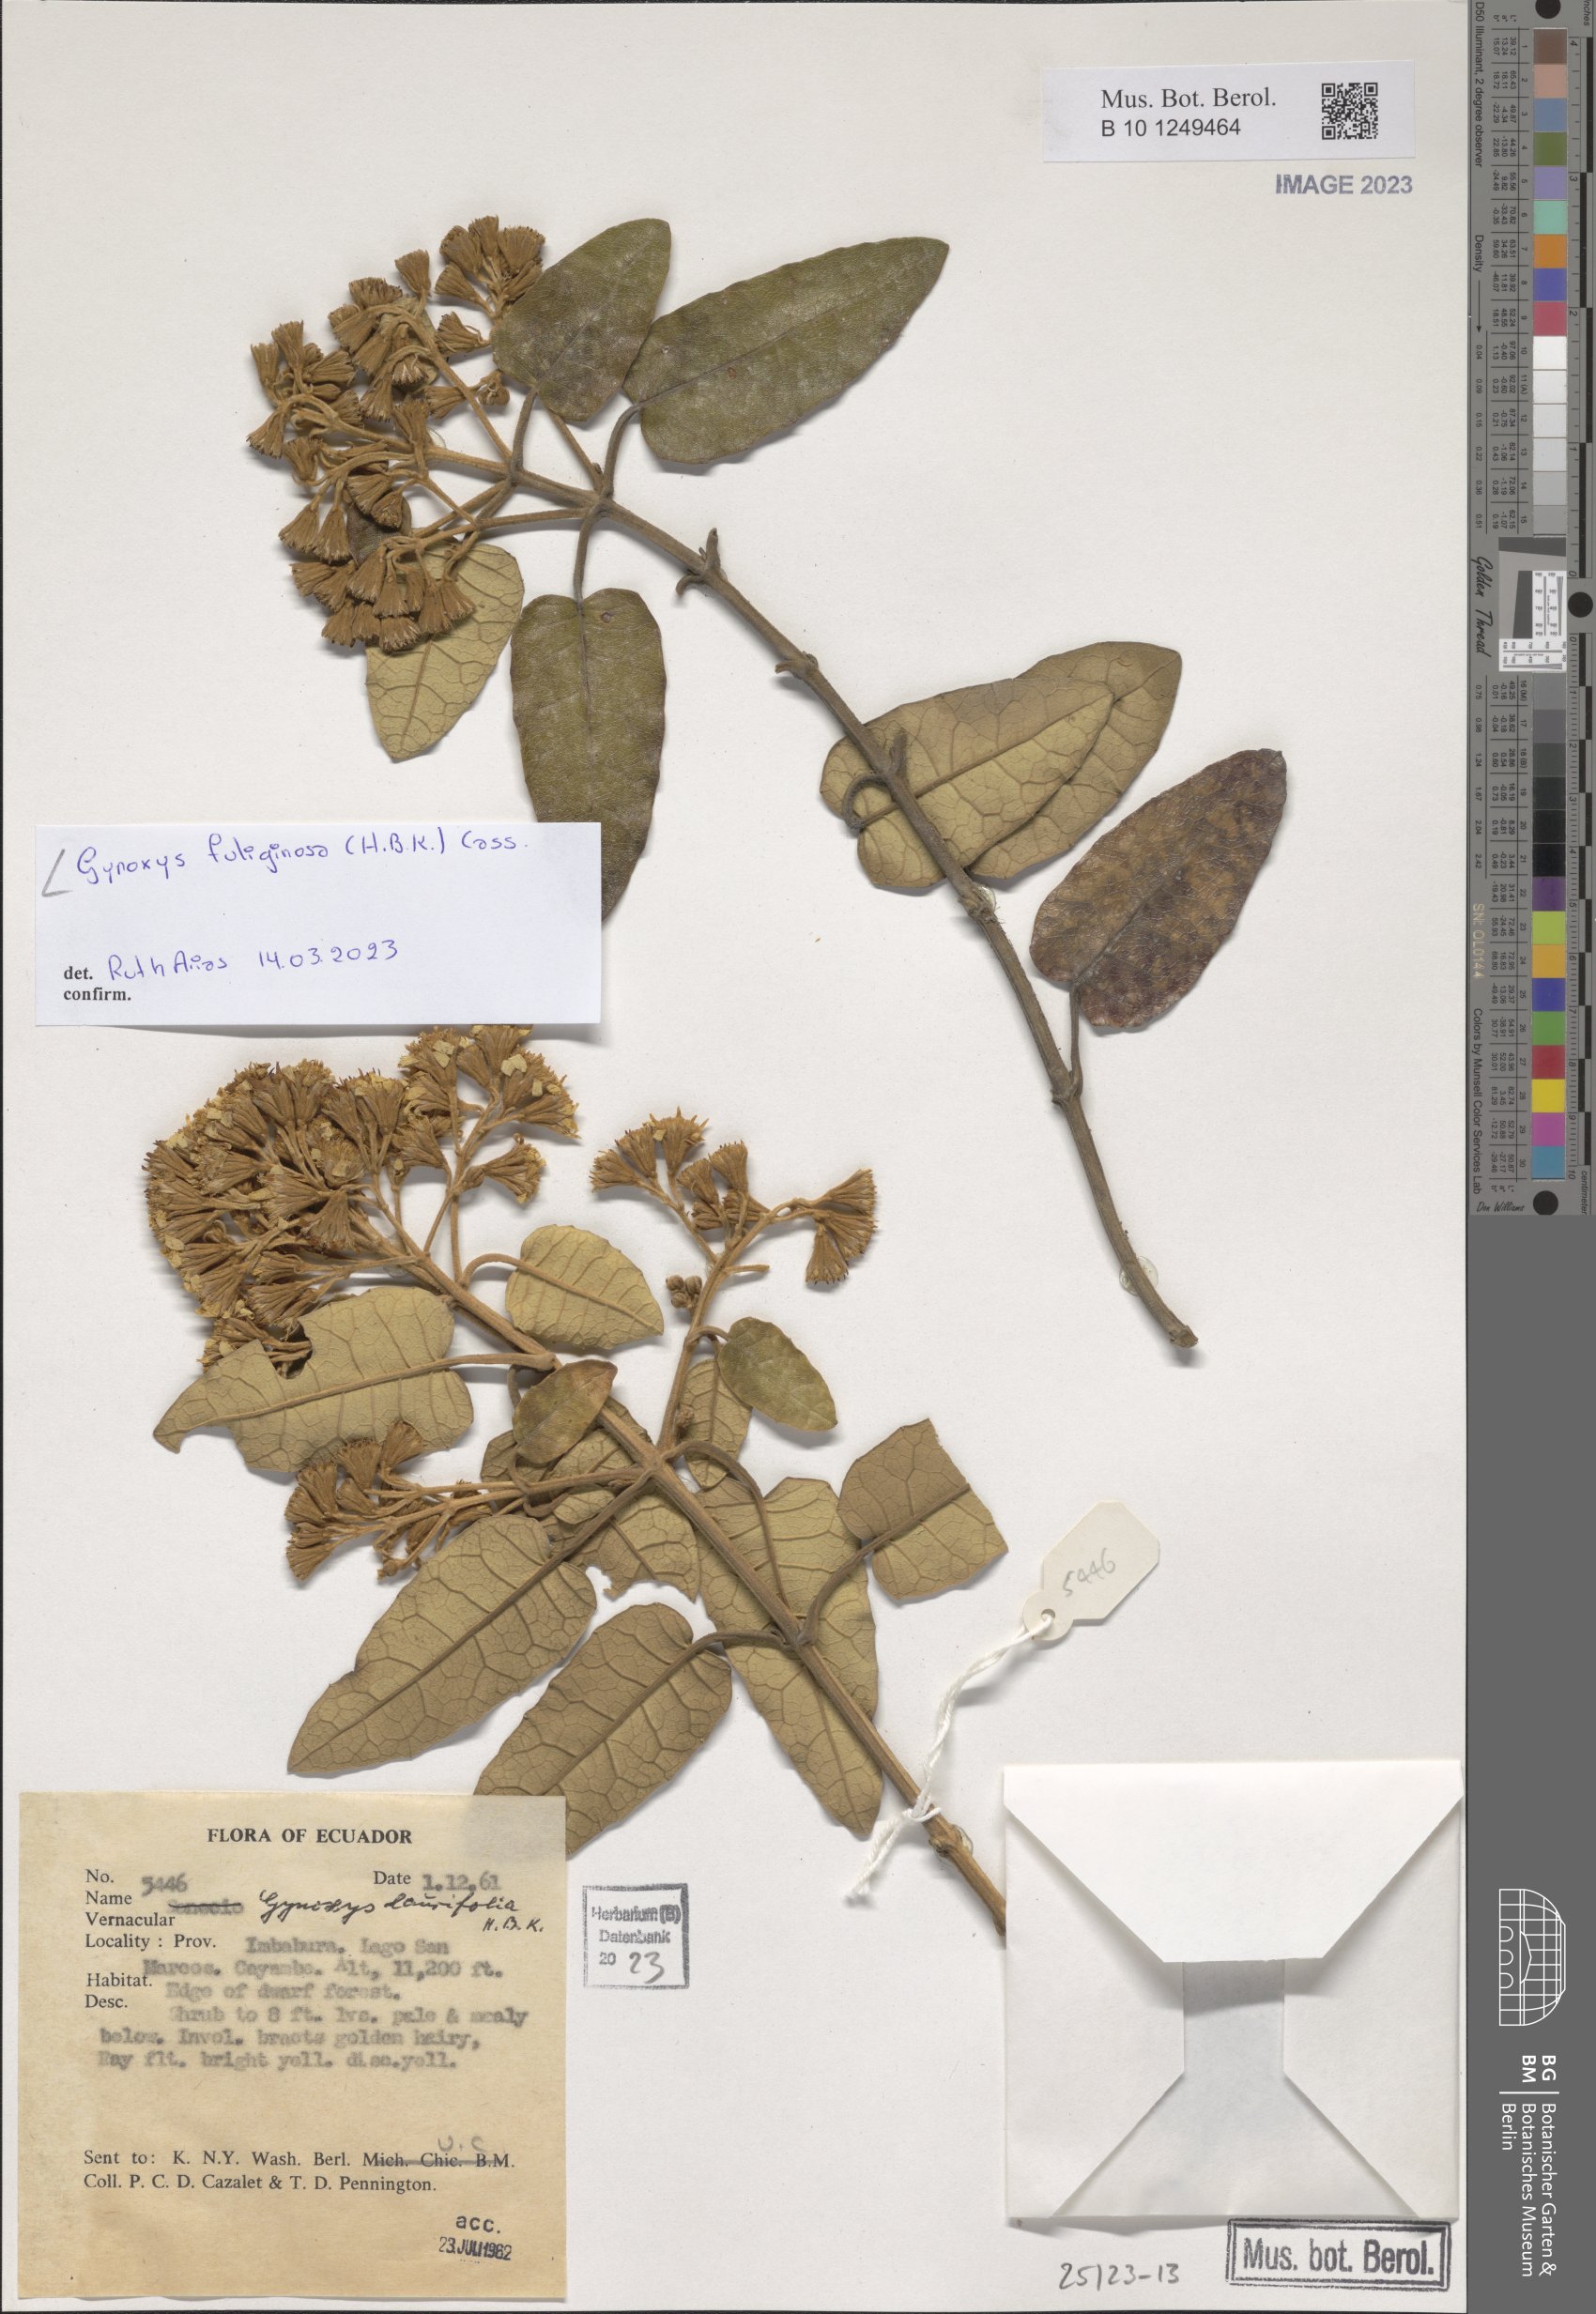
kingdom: Plantae
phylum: Tracheophyta
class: Magnoliopsida
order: Asterales
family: Asteraceae
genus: Gynoxys
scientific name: Gynoxys fuliginosa
